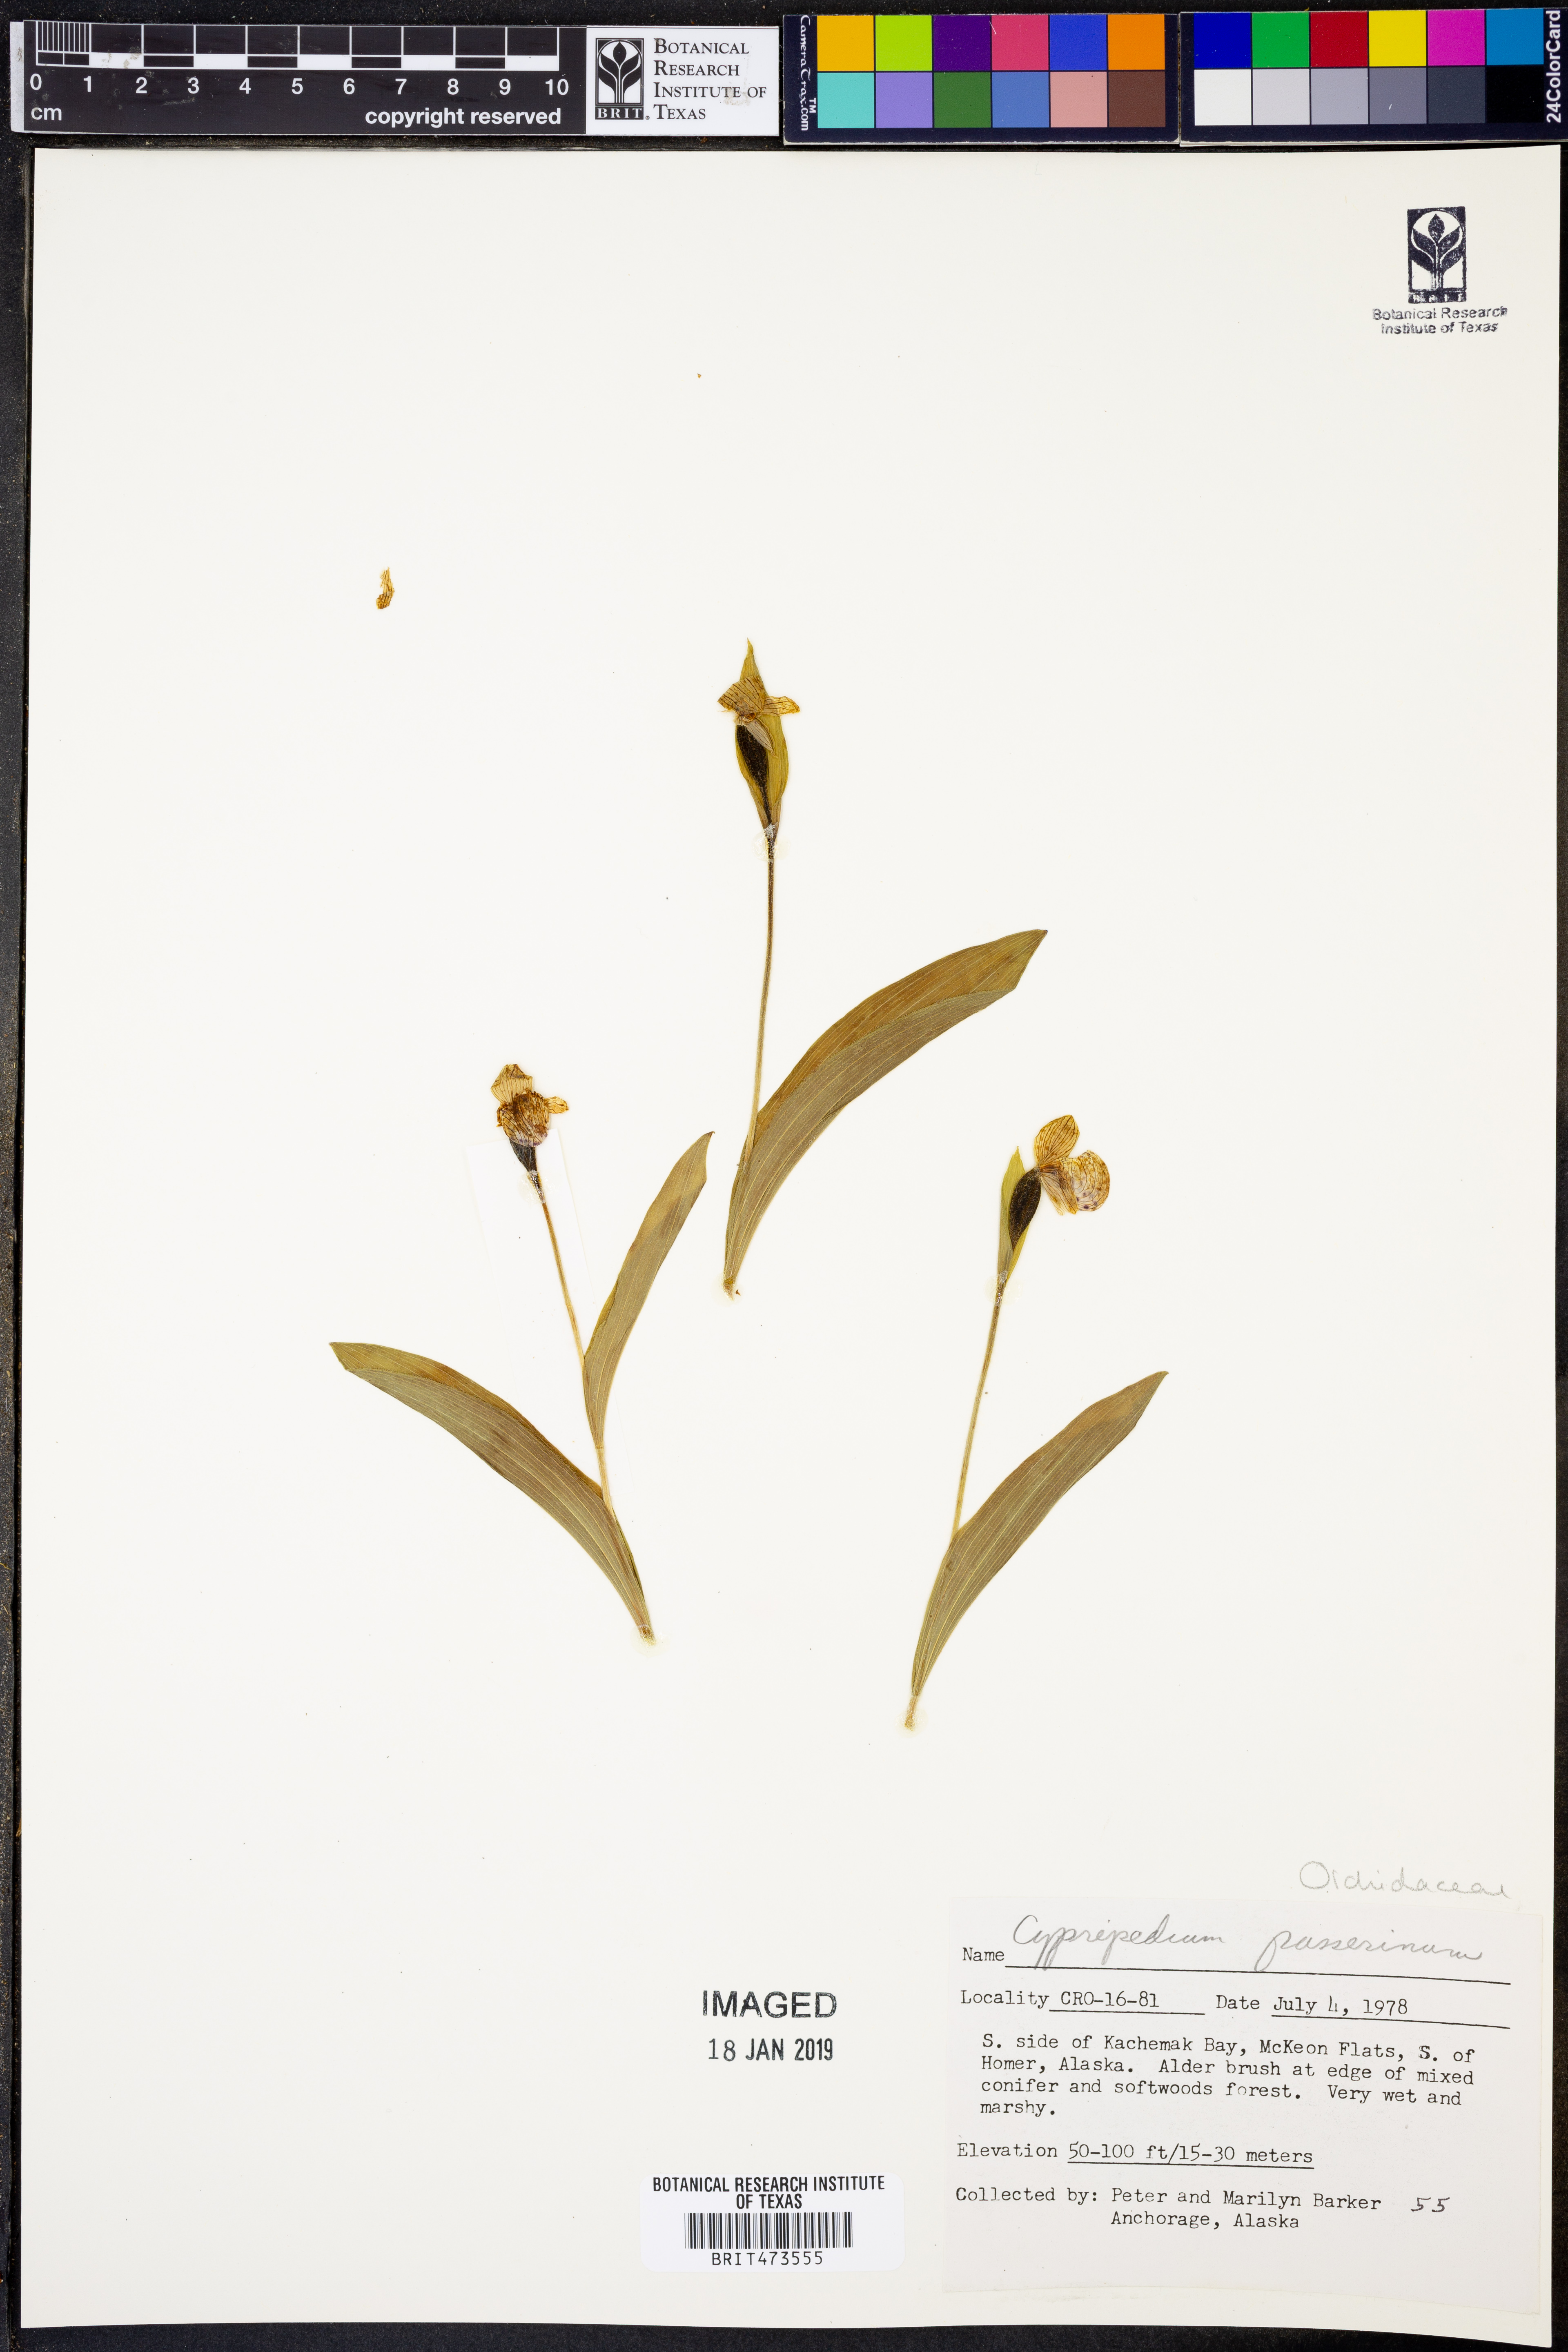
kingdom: Plantae
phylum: Tracheophyta
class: Liliopsida
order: Asparagales
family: Orchidaceae
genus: Cypripedium
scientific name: Cypripedium passerinum
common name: Sparrow's-egg lady's-slipper
